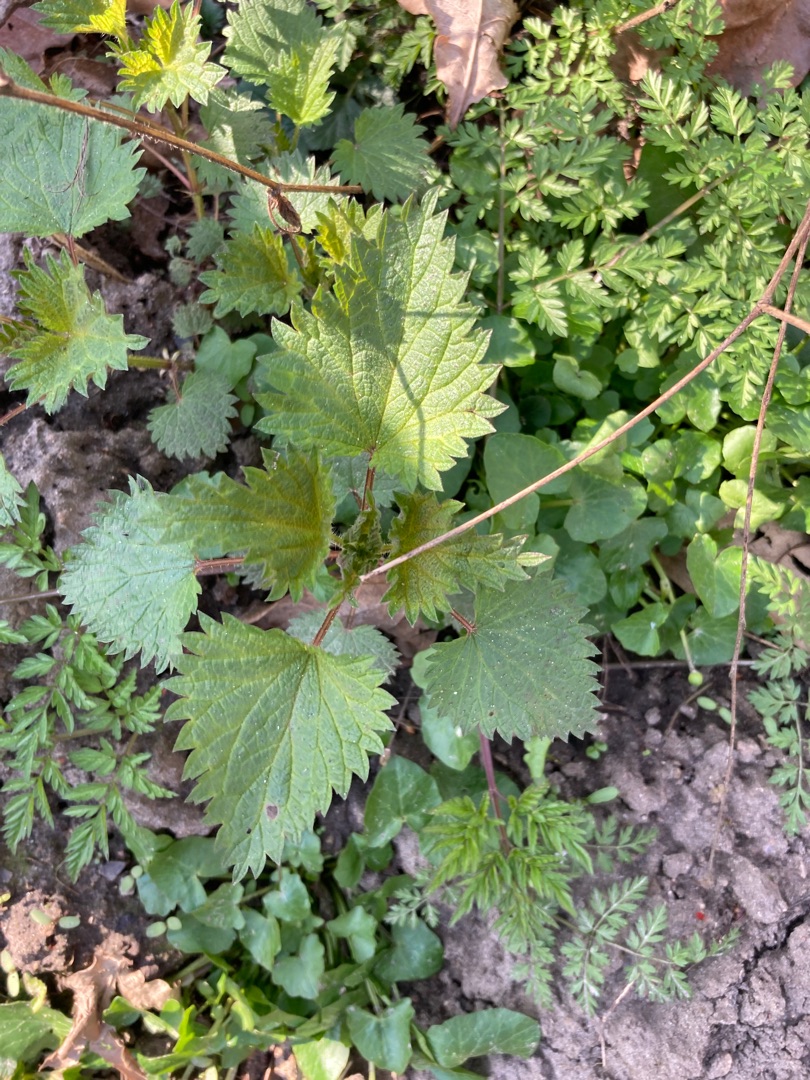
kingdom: Plantae
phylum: Tracheophyta
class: Magnoliopsida
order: Rosales
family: Urticaceae
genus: Urtica
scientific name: Urtica dioica
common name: Stor nælde
